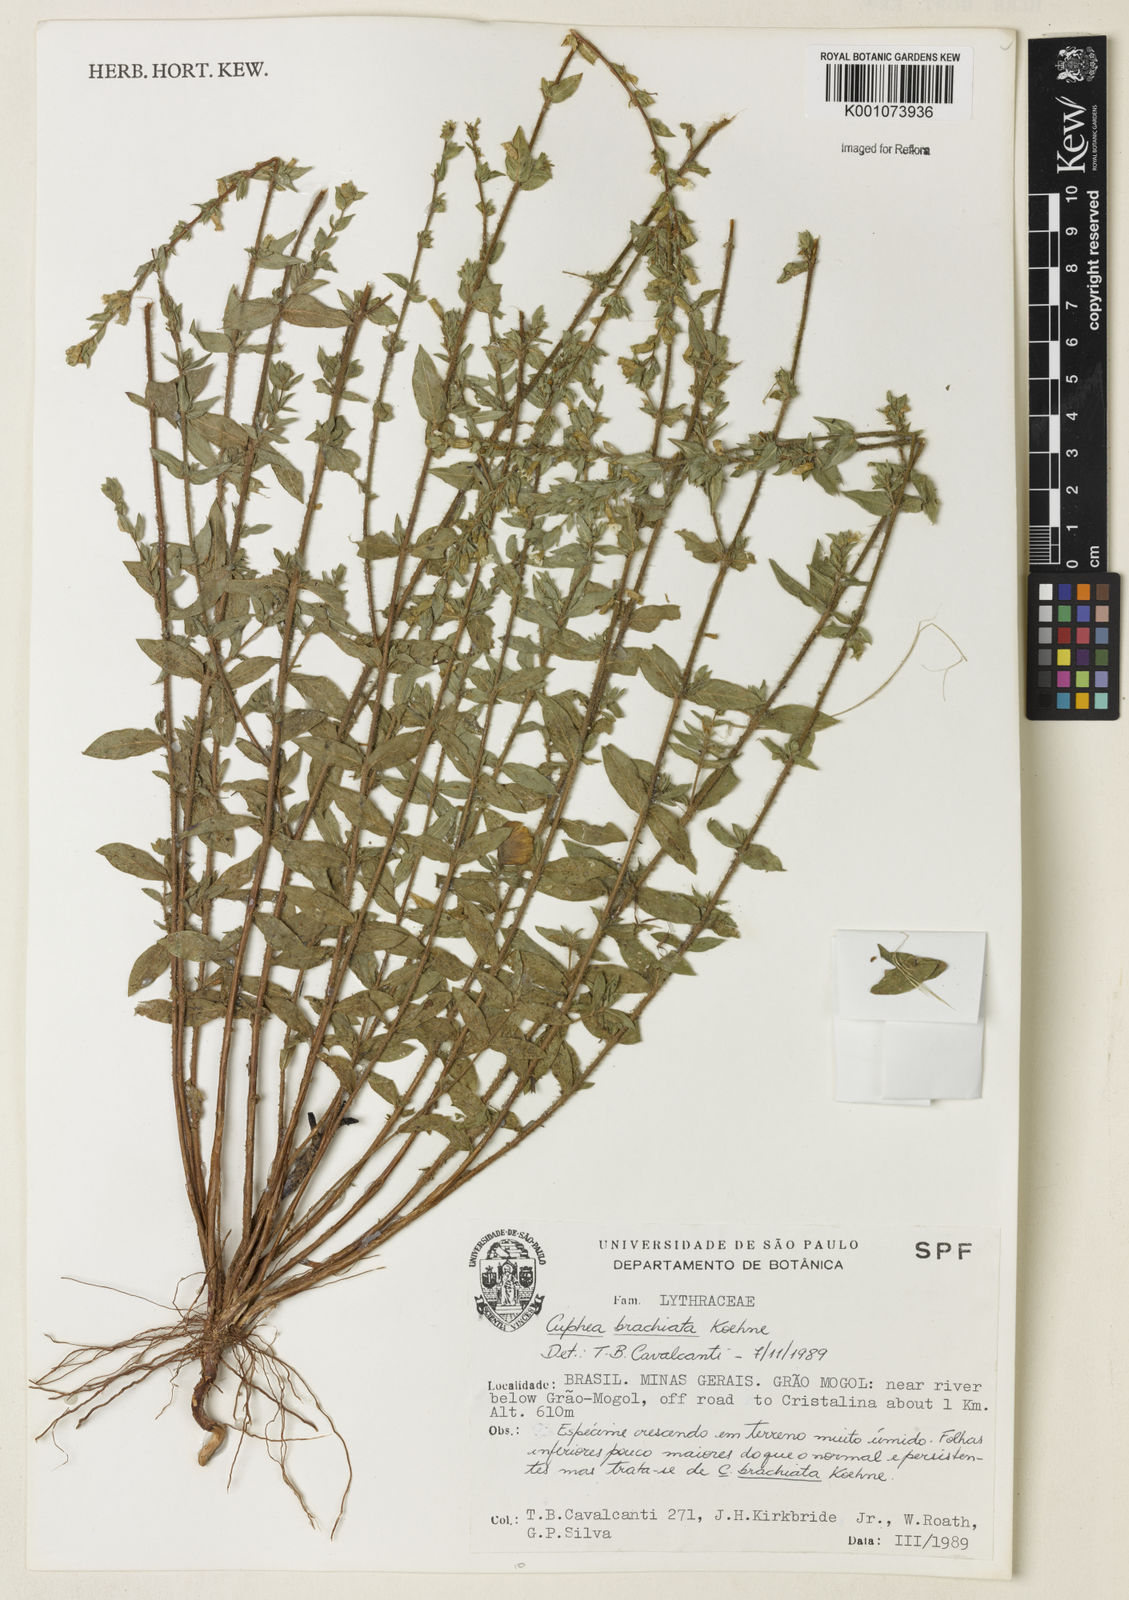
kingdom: Plantae
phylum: Tracheophyta
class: Magnoliopsida
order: Myrtales
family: Lythraceae
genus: Cuphea
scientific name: Cuphea brachiata
